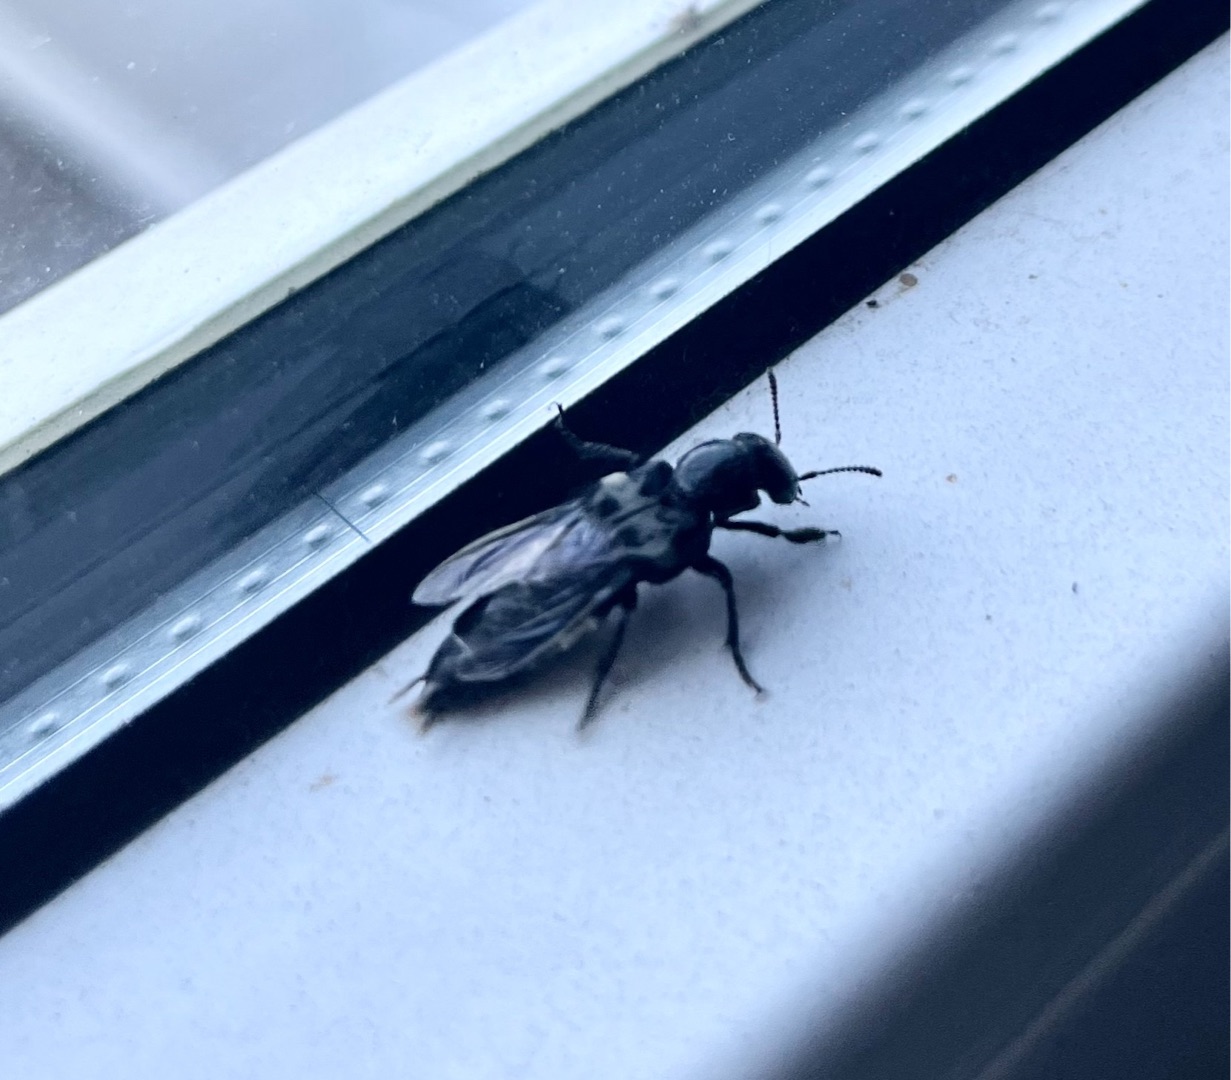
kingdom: Animalia
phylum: Arthropoda
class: Insecta
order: Coleoptera
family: Staphylinidae
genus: Creophilus
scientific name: Creophilus maxillosus
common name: Skrækrovbille
